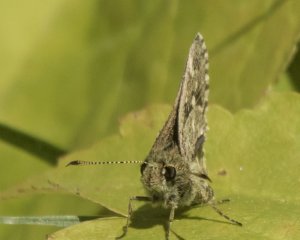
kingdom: Animalia
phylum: Arthropoda
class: Insecta
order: Lepidoptera
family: Hesperiidae
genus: Mastor
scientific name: Mastor hegon
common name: Pepper and Salt Skipper
